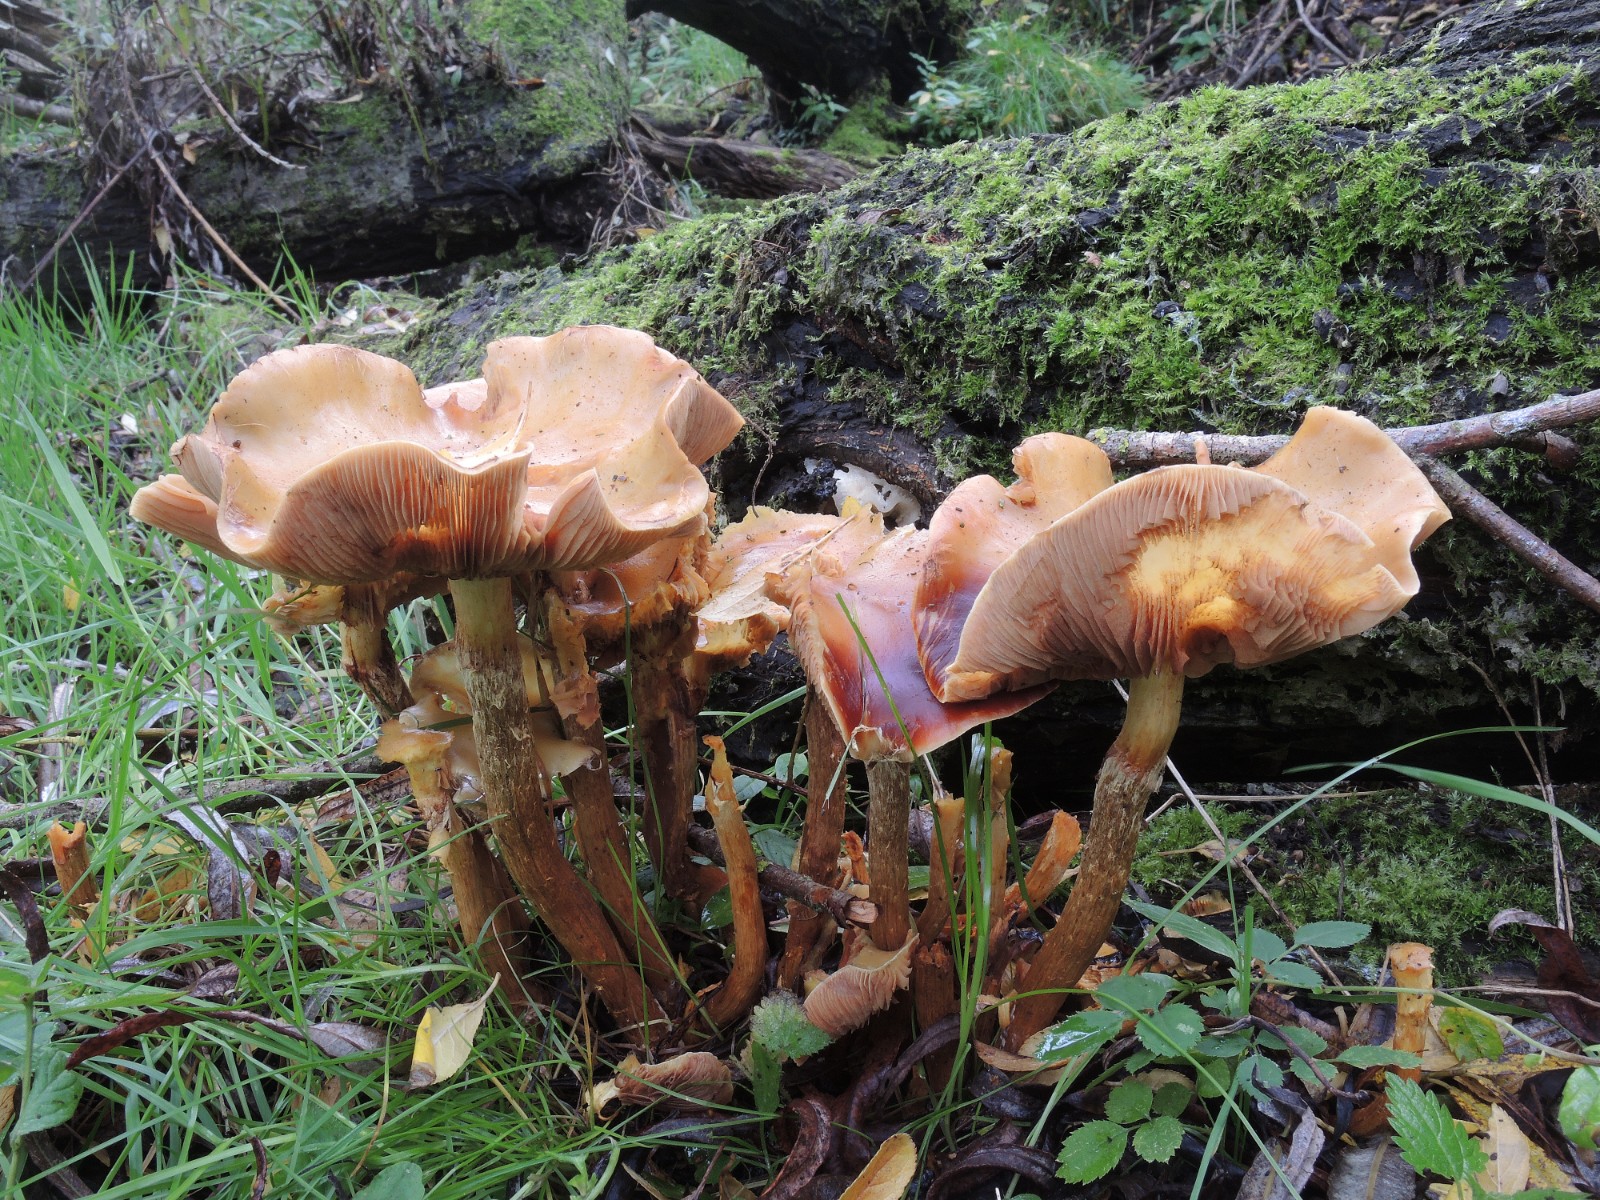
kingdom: Fungi
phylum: Basidiomycota
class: Agaricomycetes
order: Agaricales
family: Hymenogastraceae
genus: Flammula
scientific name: Flammula alnicola
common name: elle-skælhat
